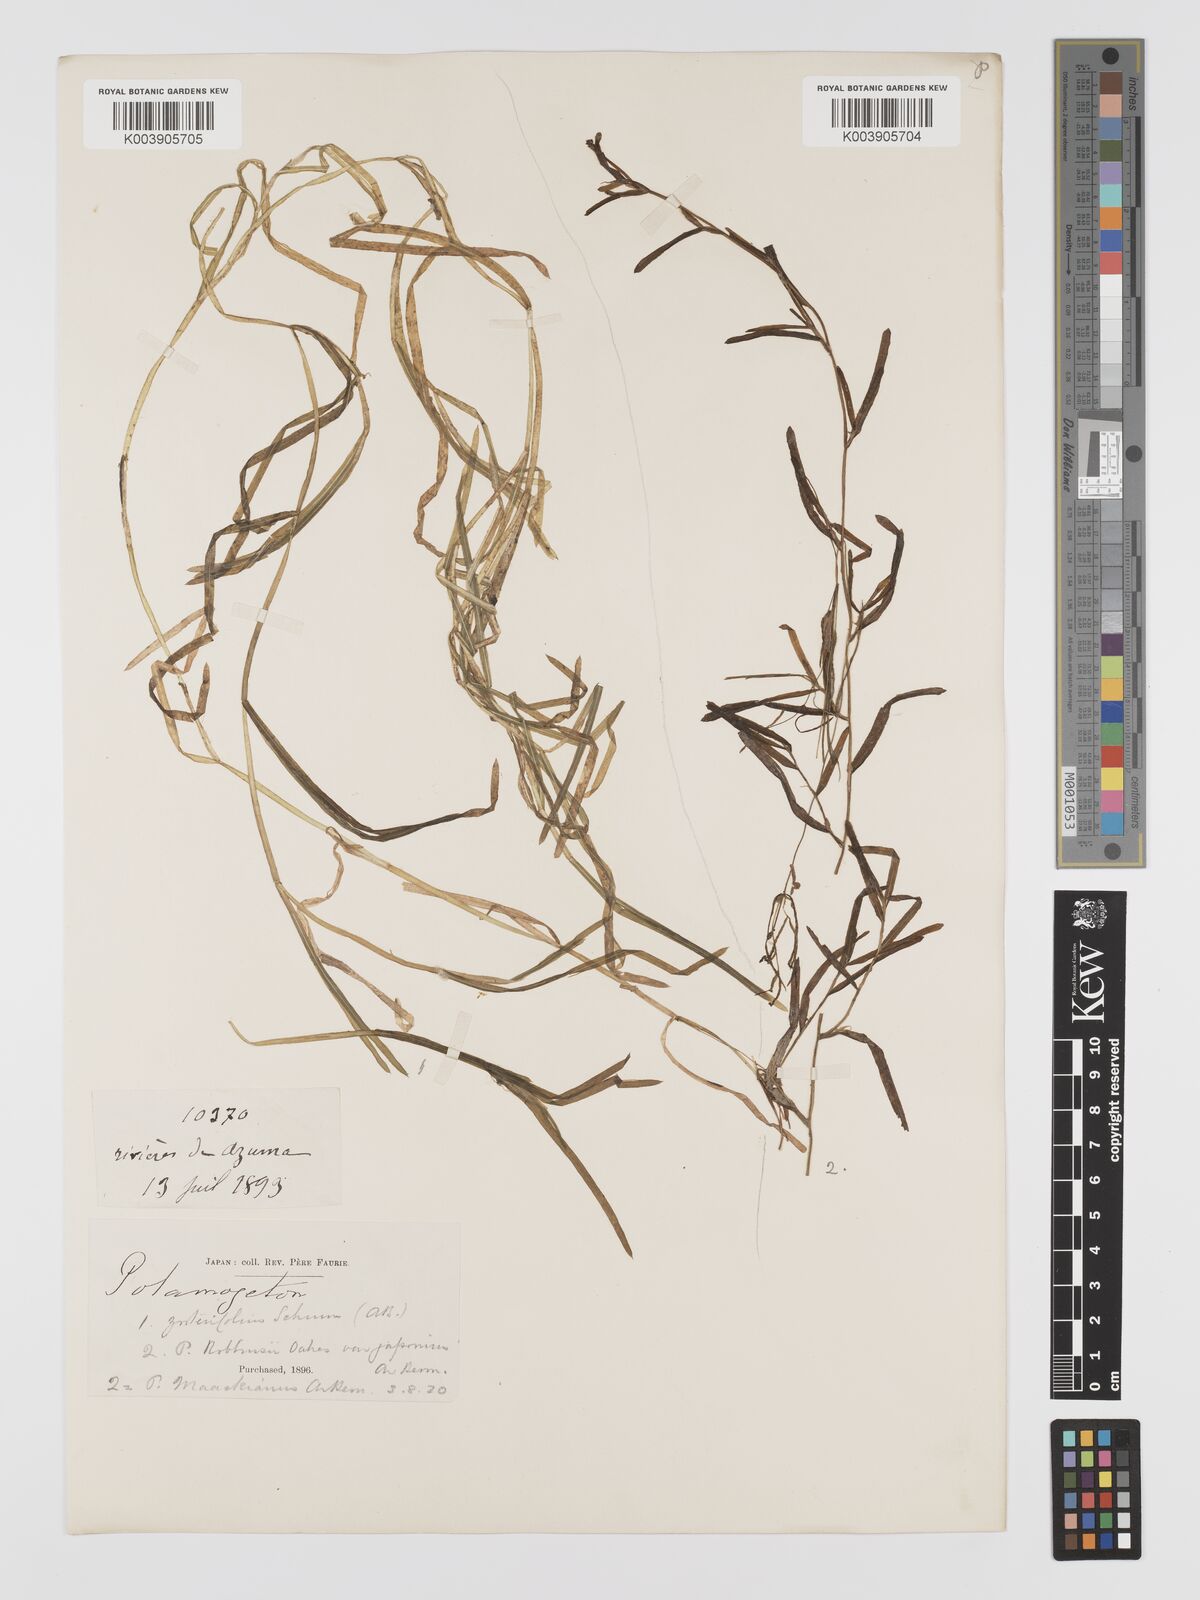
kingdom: Plantae
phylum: Tracheophyta
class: Liliopsida
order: Alismatales
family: Potamogetonaceae
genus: Potamogeton
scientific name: Potamogeton compressus
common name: Grass-wrack pondweed
